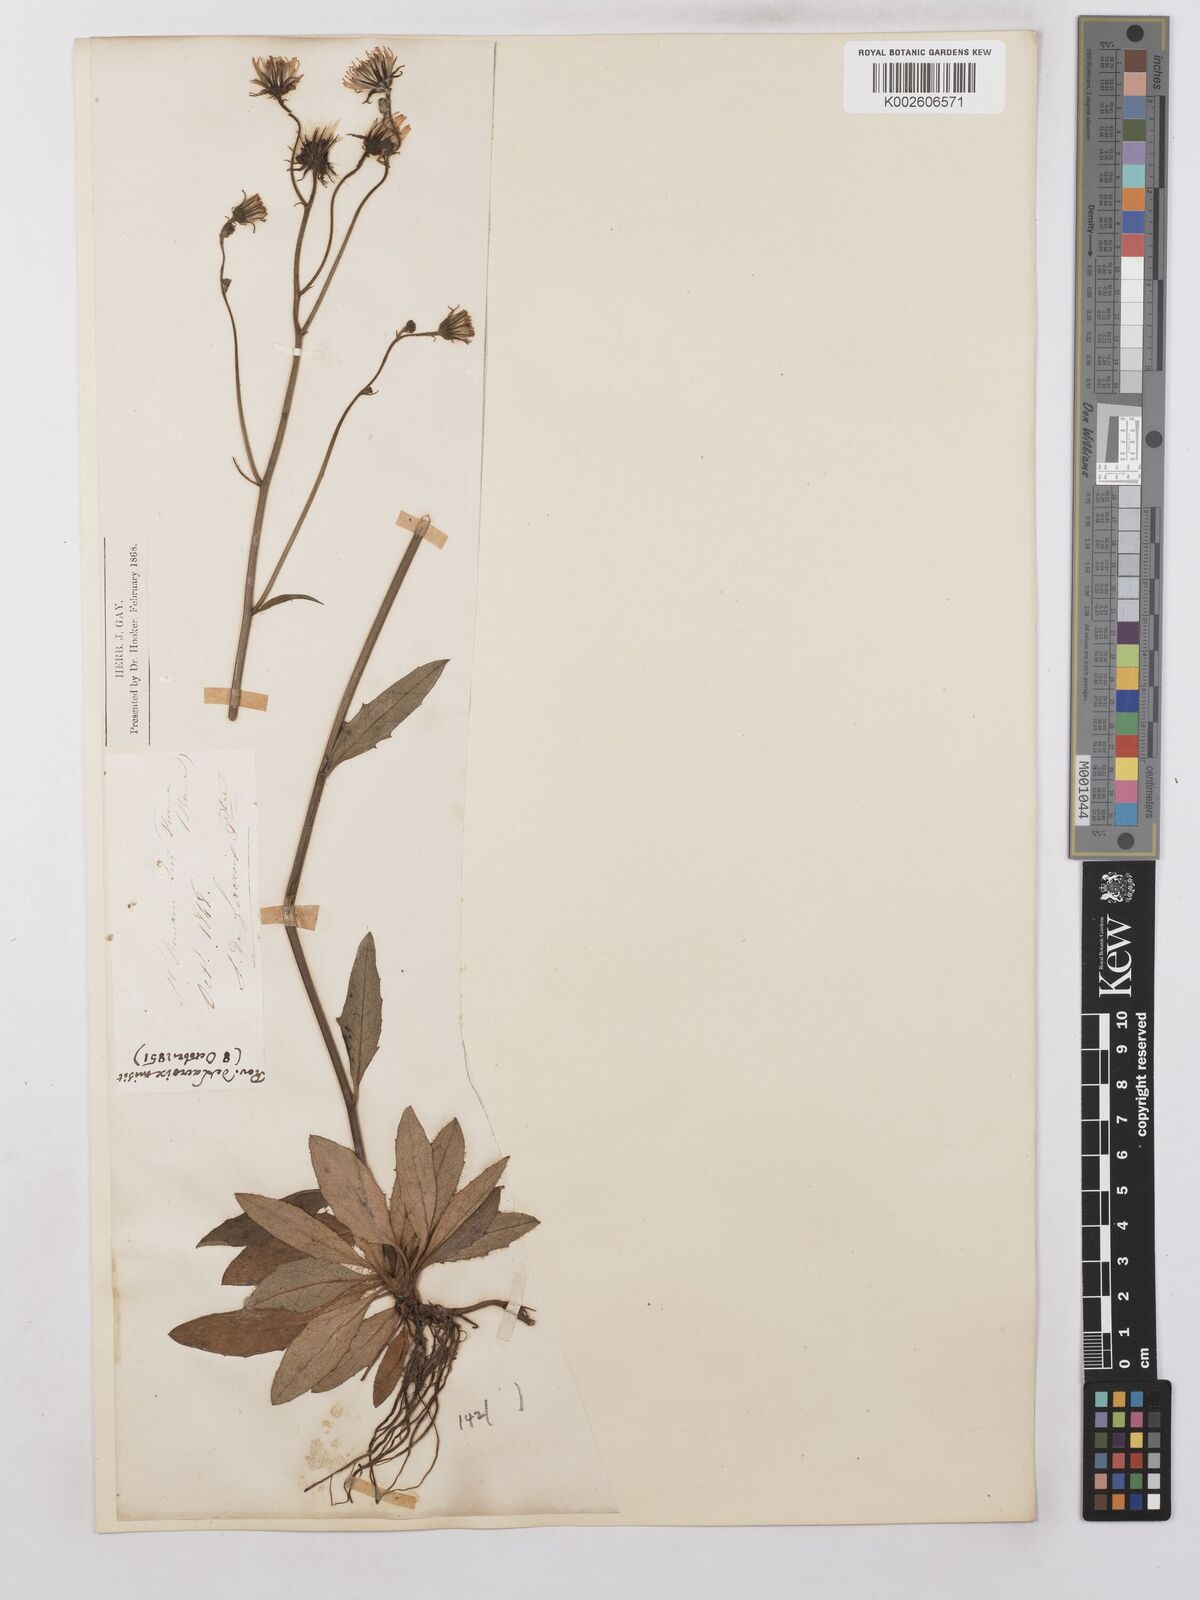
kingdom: Plantae
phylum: Tracheophyta
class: Magnoliopsida
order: Asterales
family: Asteraceae
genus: Hieracium
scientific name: Hieracium lachenalii
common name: Common hawkweed
